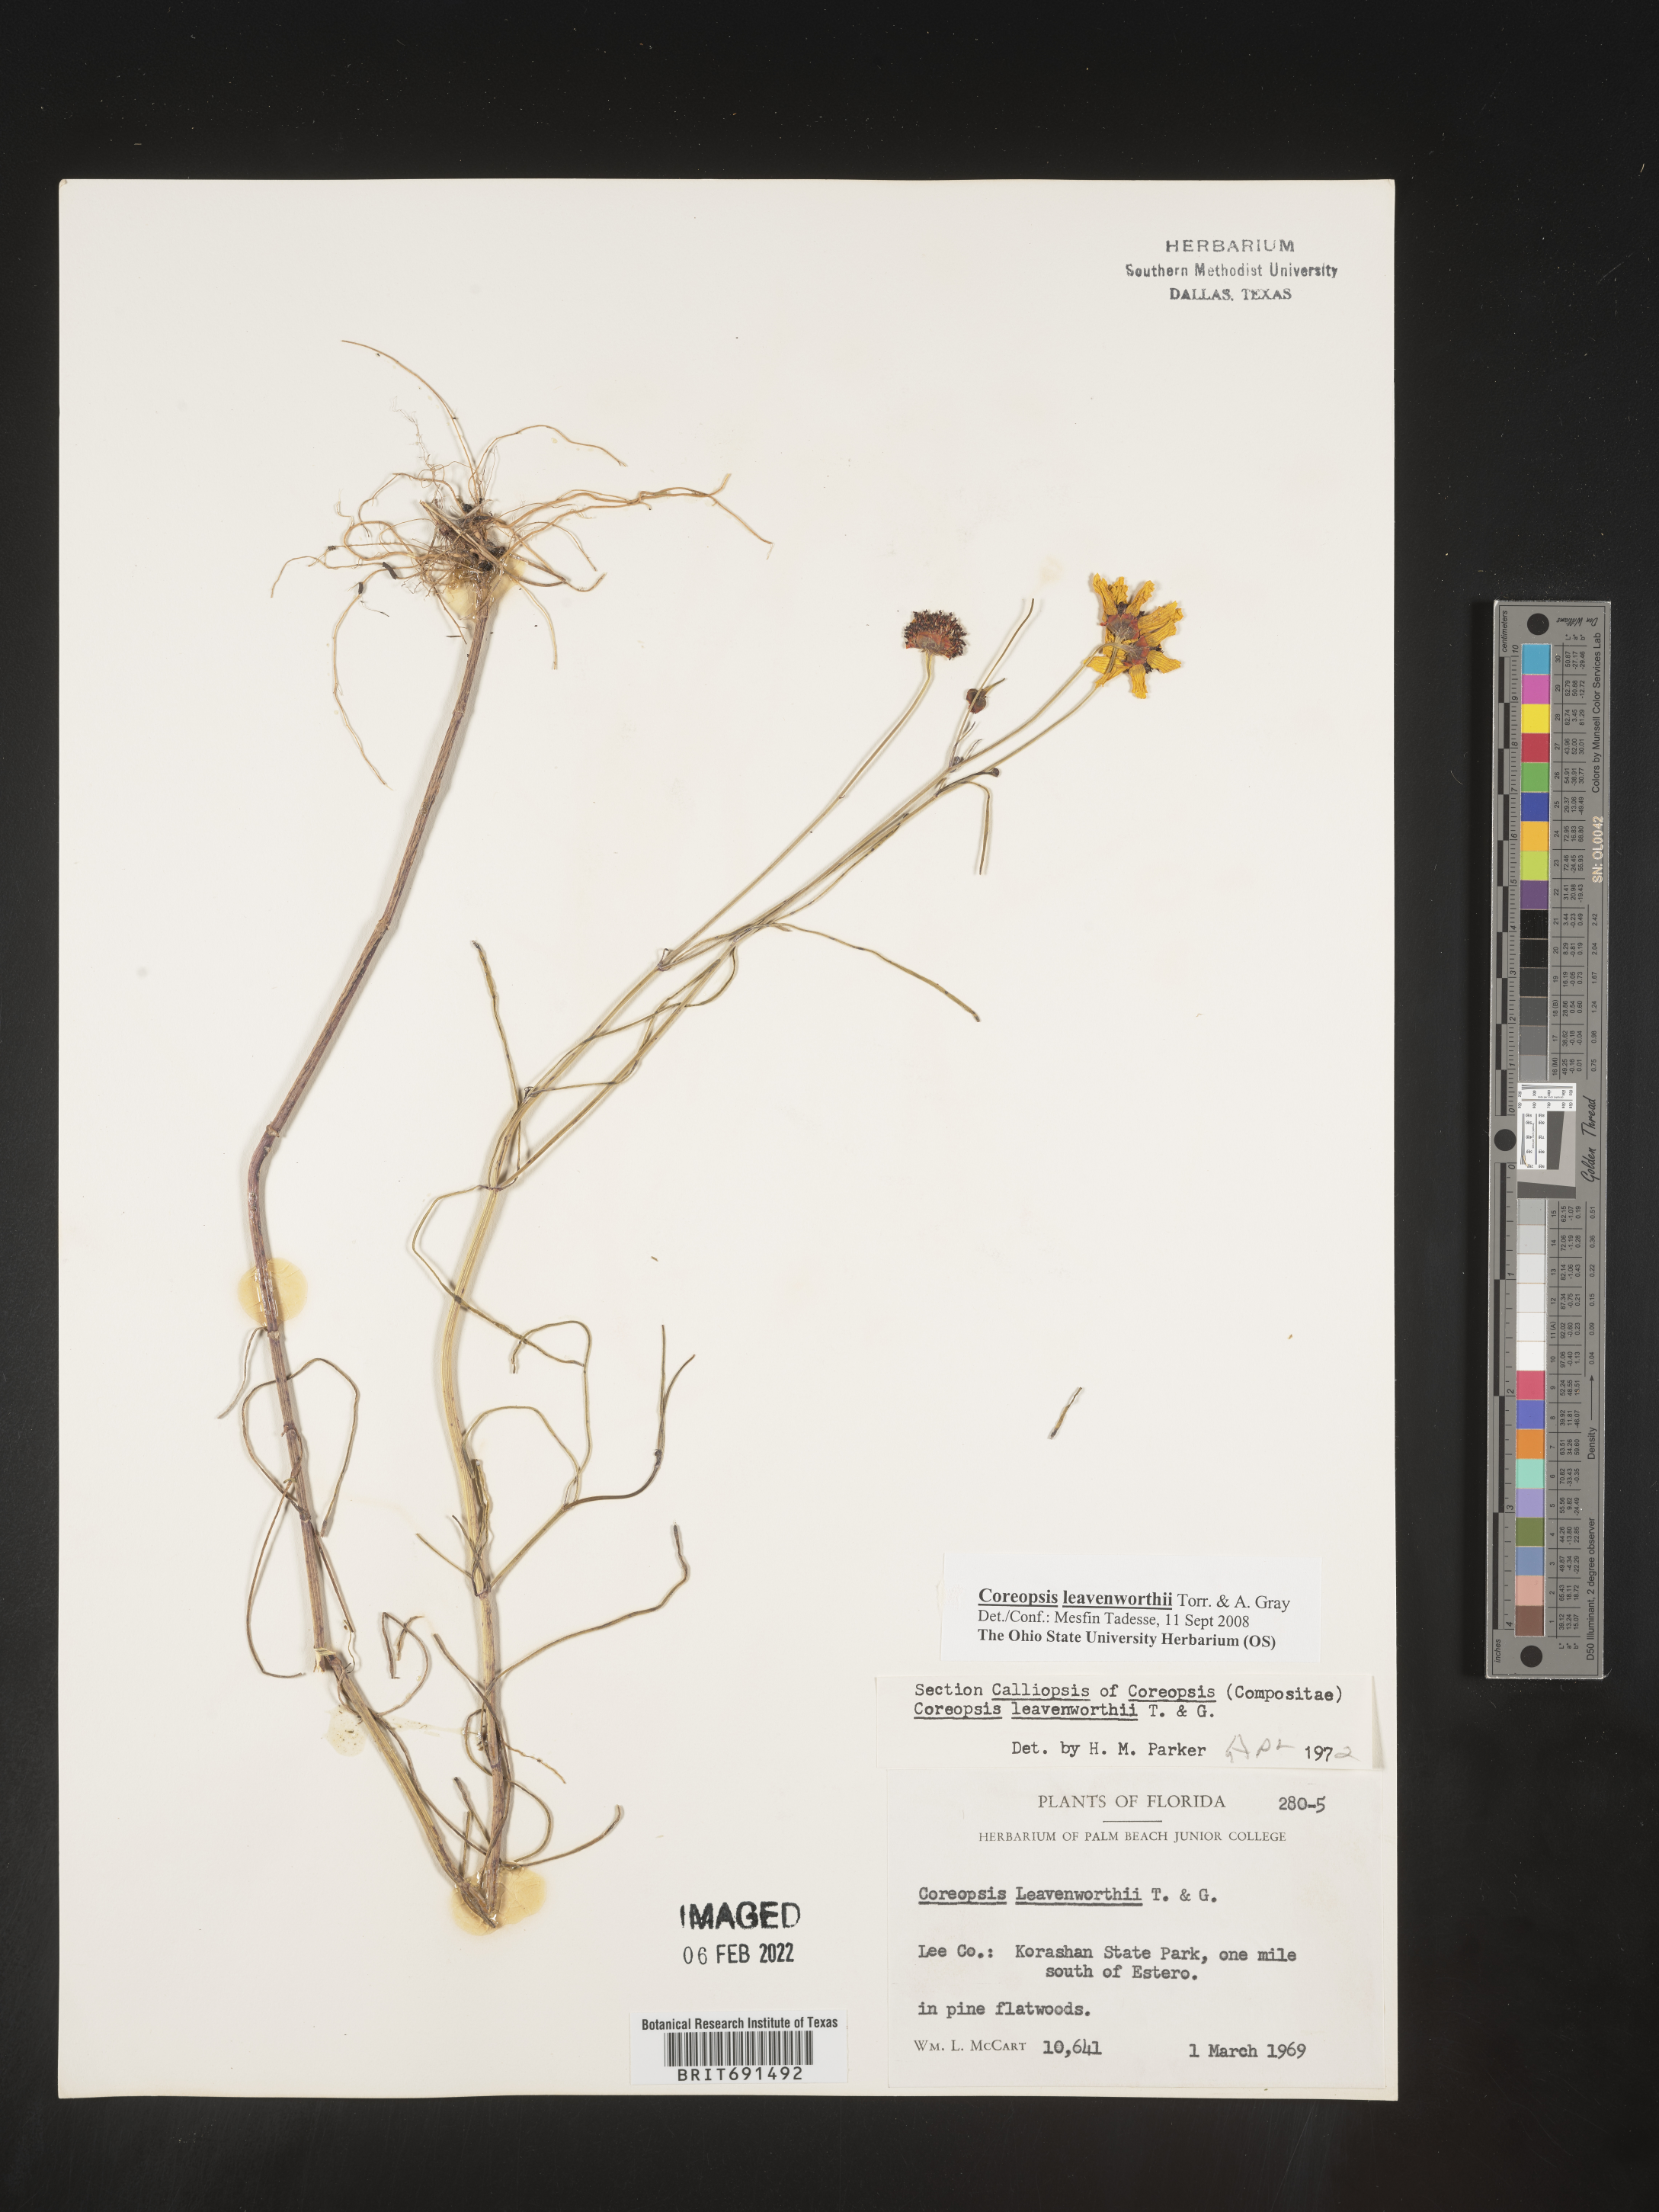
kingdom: Plantae
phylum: Tracheophyta
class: Magnoliopsida
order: Asterales
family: Asteraceae
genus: Coreopsis
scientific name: Coreopsis leavenworthii
